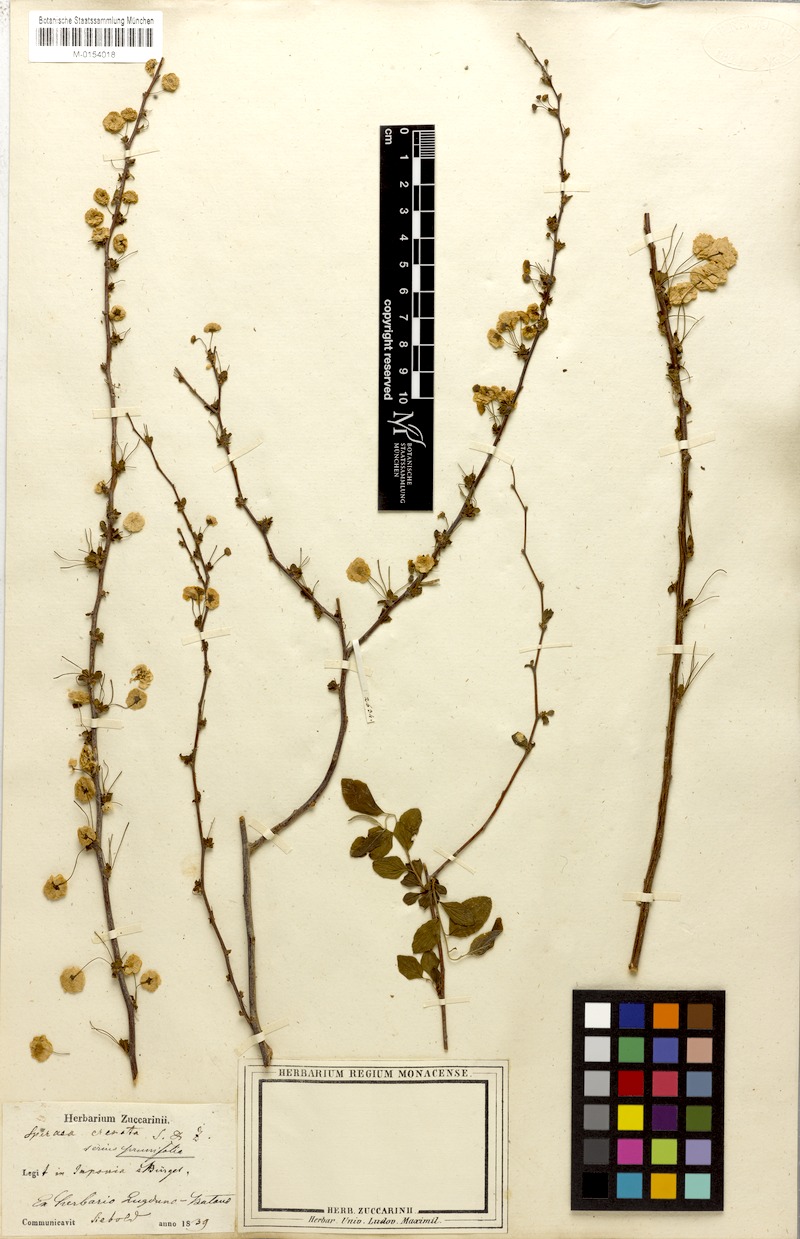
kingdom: Plantae
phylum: Tracheophyta
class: Magnoliopsida
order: Rosales
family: Rosaceae
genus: Spiraea
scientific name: Spiraea prunifolia
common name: Bridal-wreath spiraea
